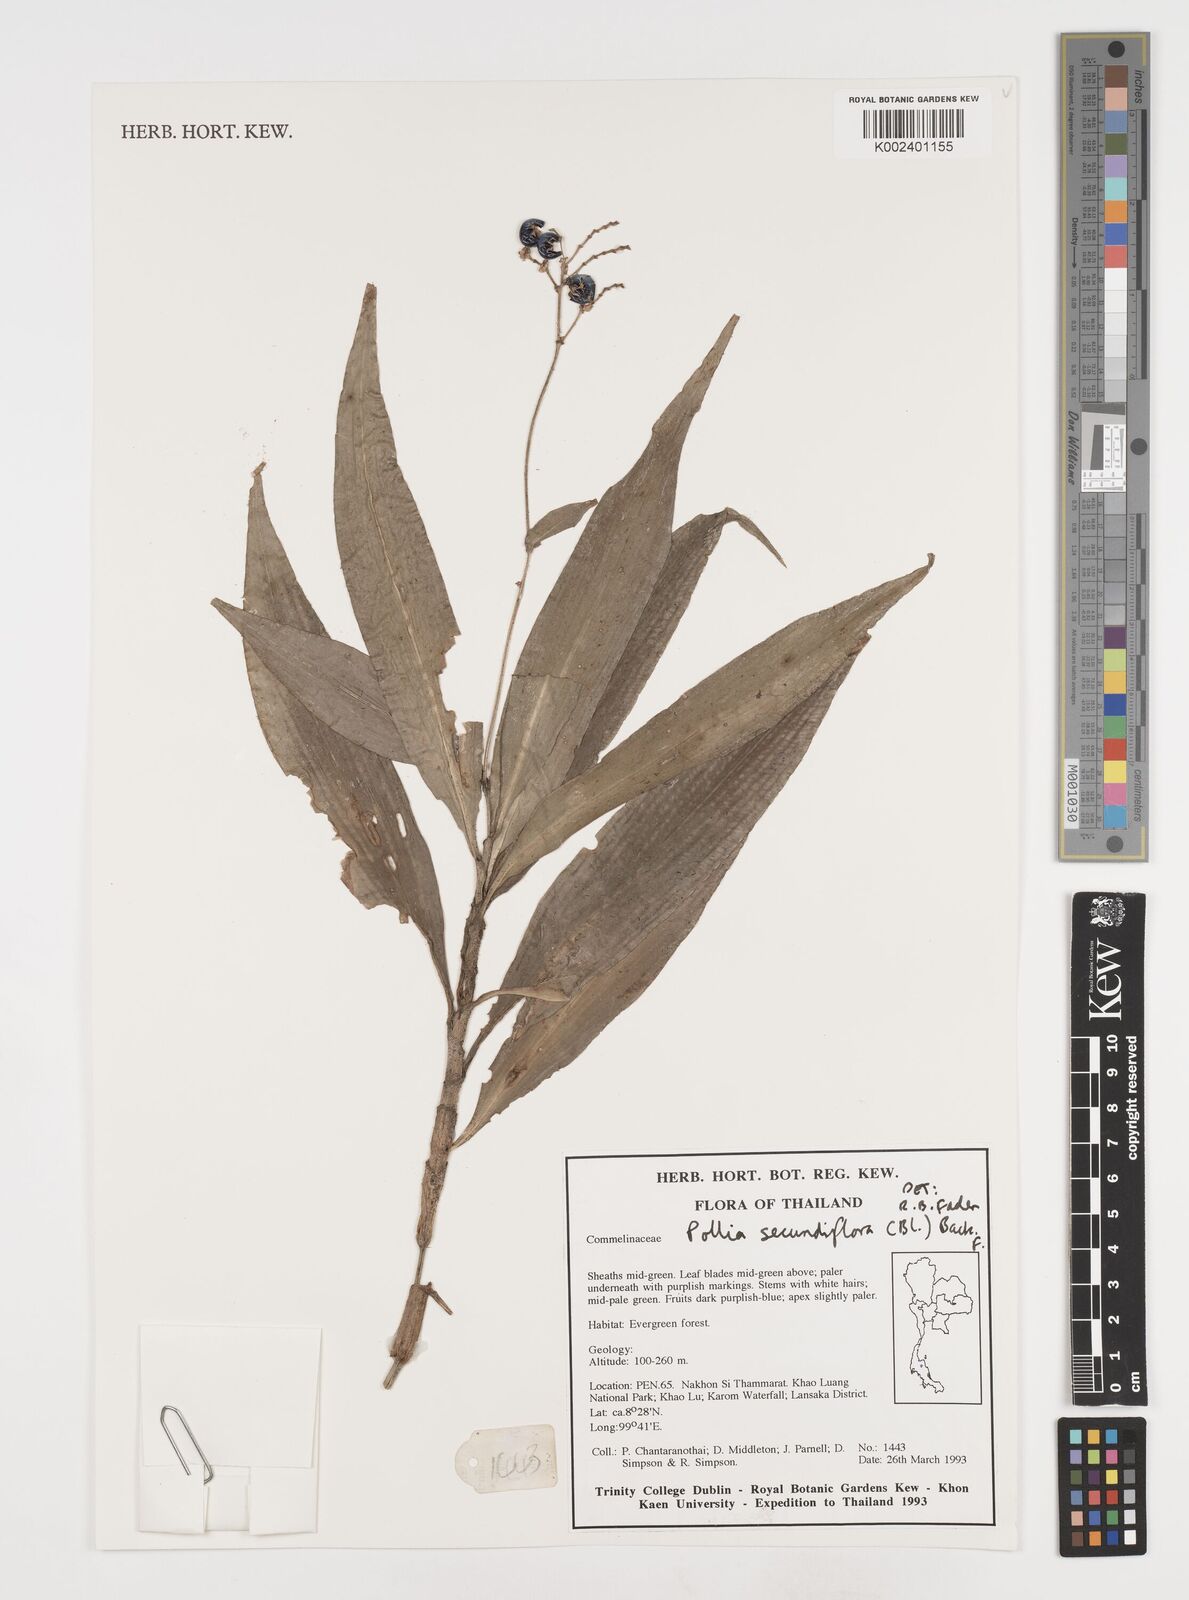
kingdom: Plantae
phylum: Tracheophyta
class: Liliopsida
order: Commelinales
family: Commelinaceae
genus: Pollia
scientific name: Pollia secundiflora
